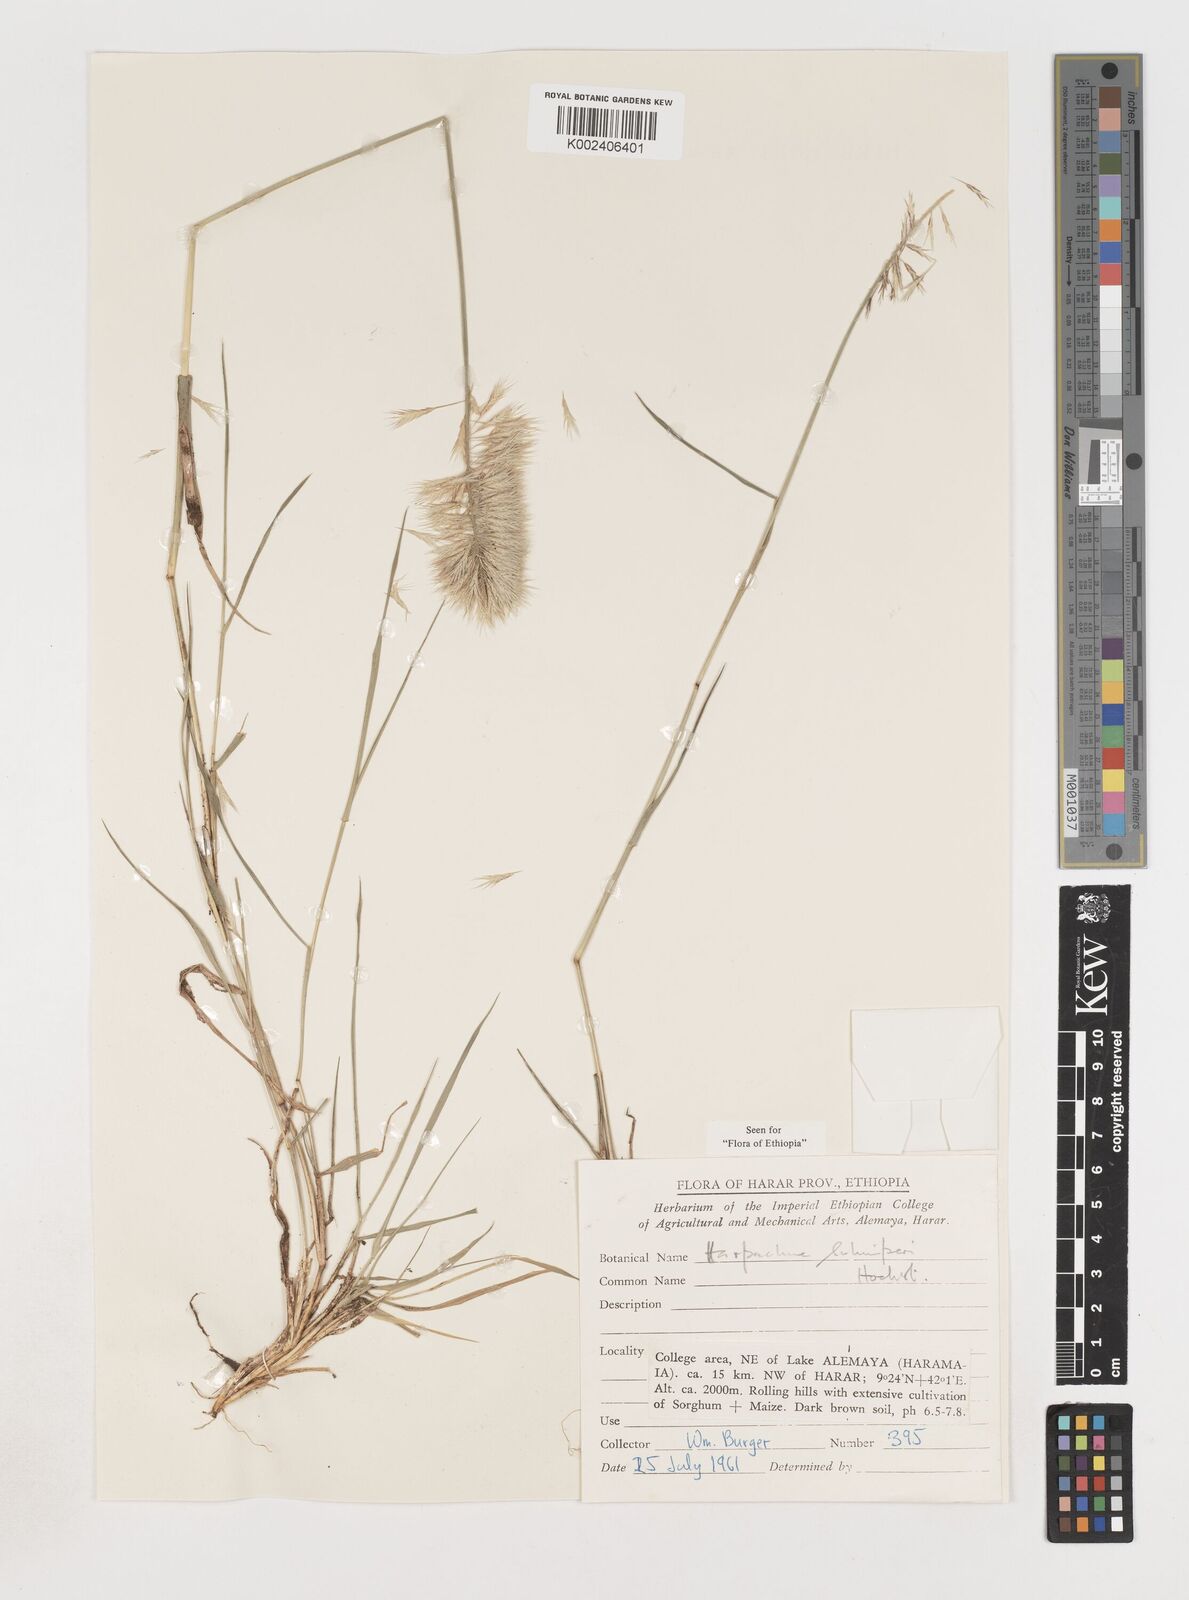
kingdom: Plantae
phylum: Tracheophyta
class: Liliopsida
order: Poales
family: Poaceae
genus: Harpachne
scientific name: Harpachne schimperi
